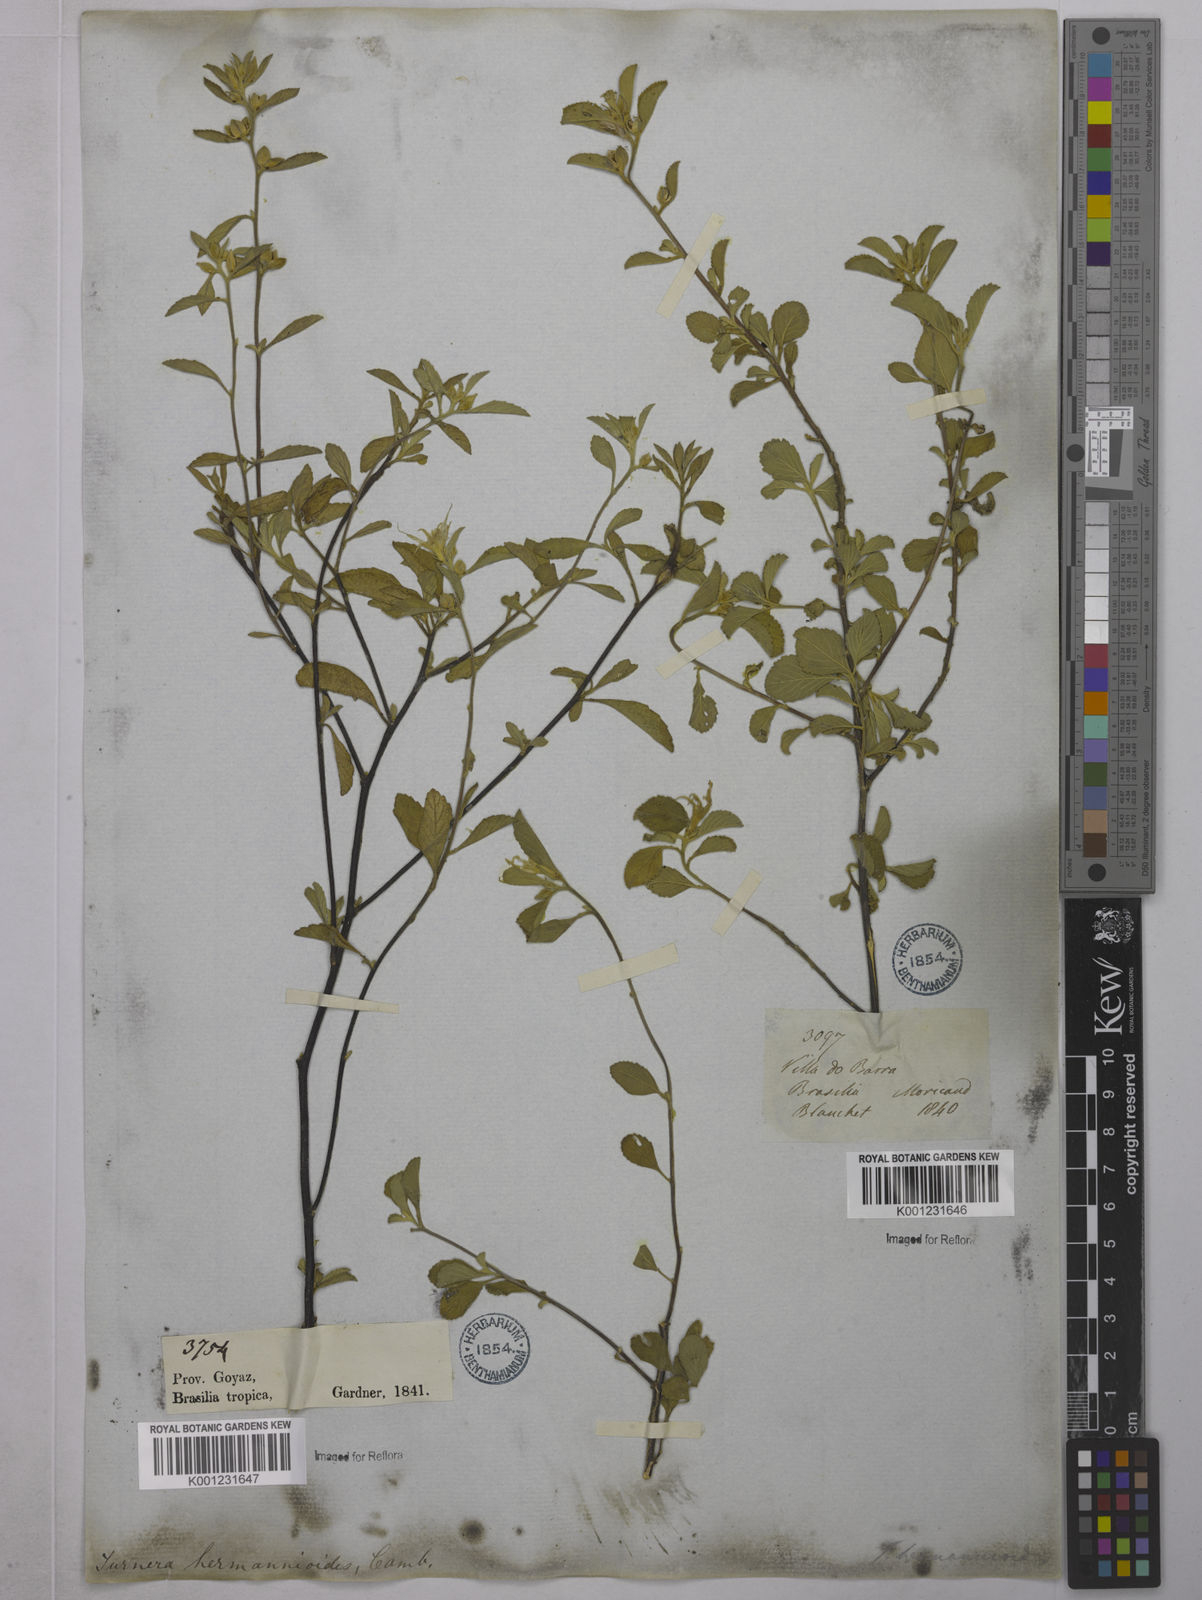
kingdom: Plantae
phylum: Tracheophyta
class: Magnoliopsida
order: Malpighiales
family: Turneraceae
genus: Turnera
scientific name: Turnera hermannioides
